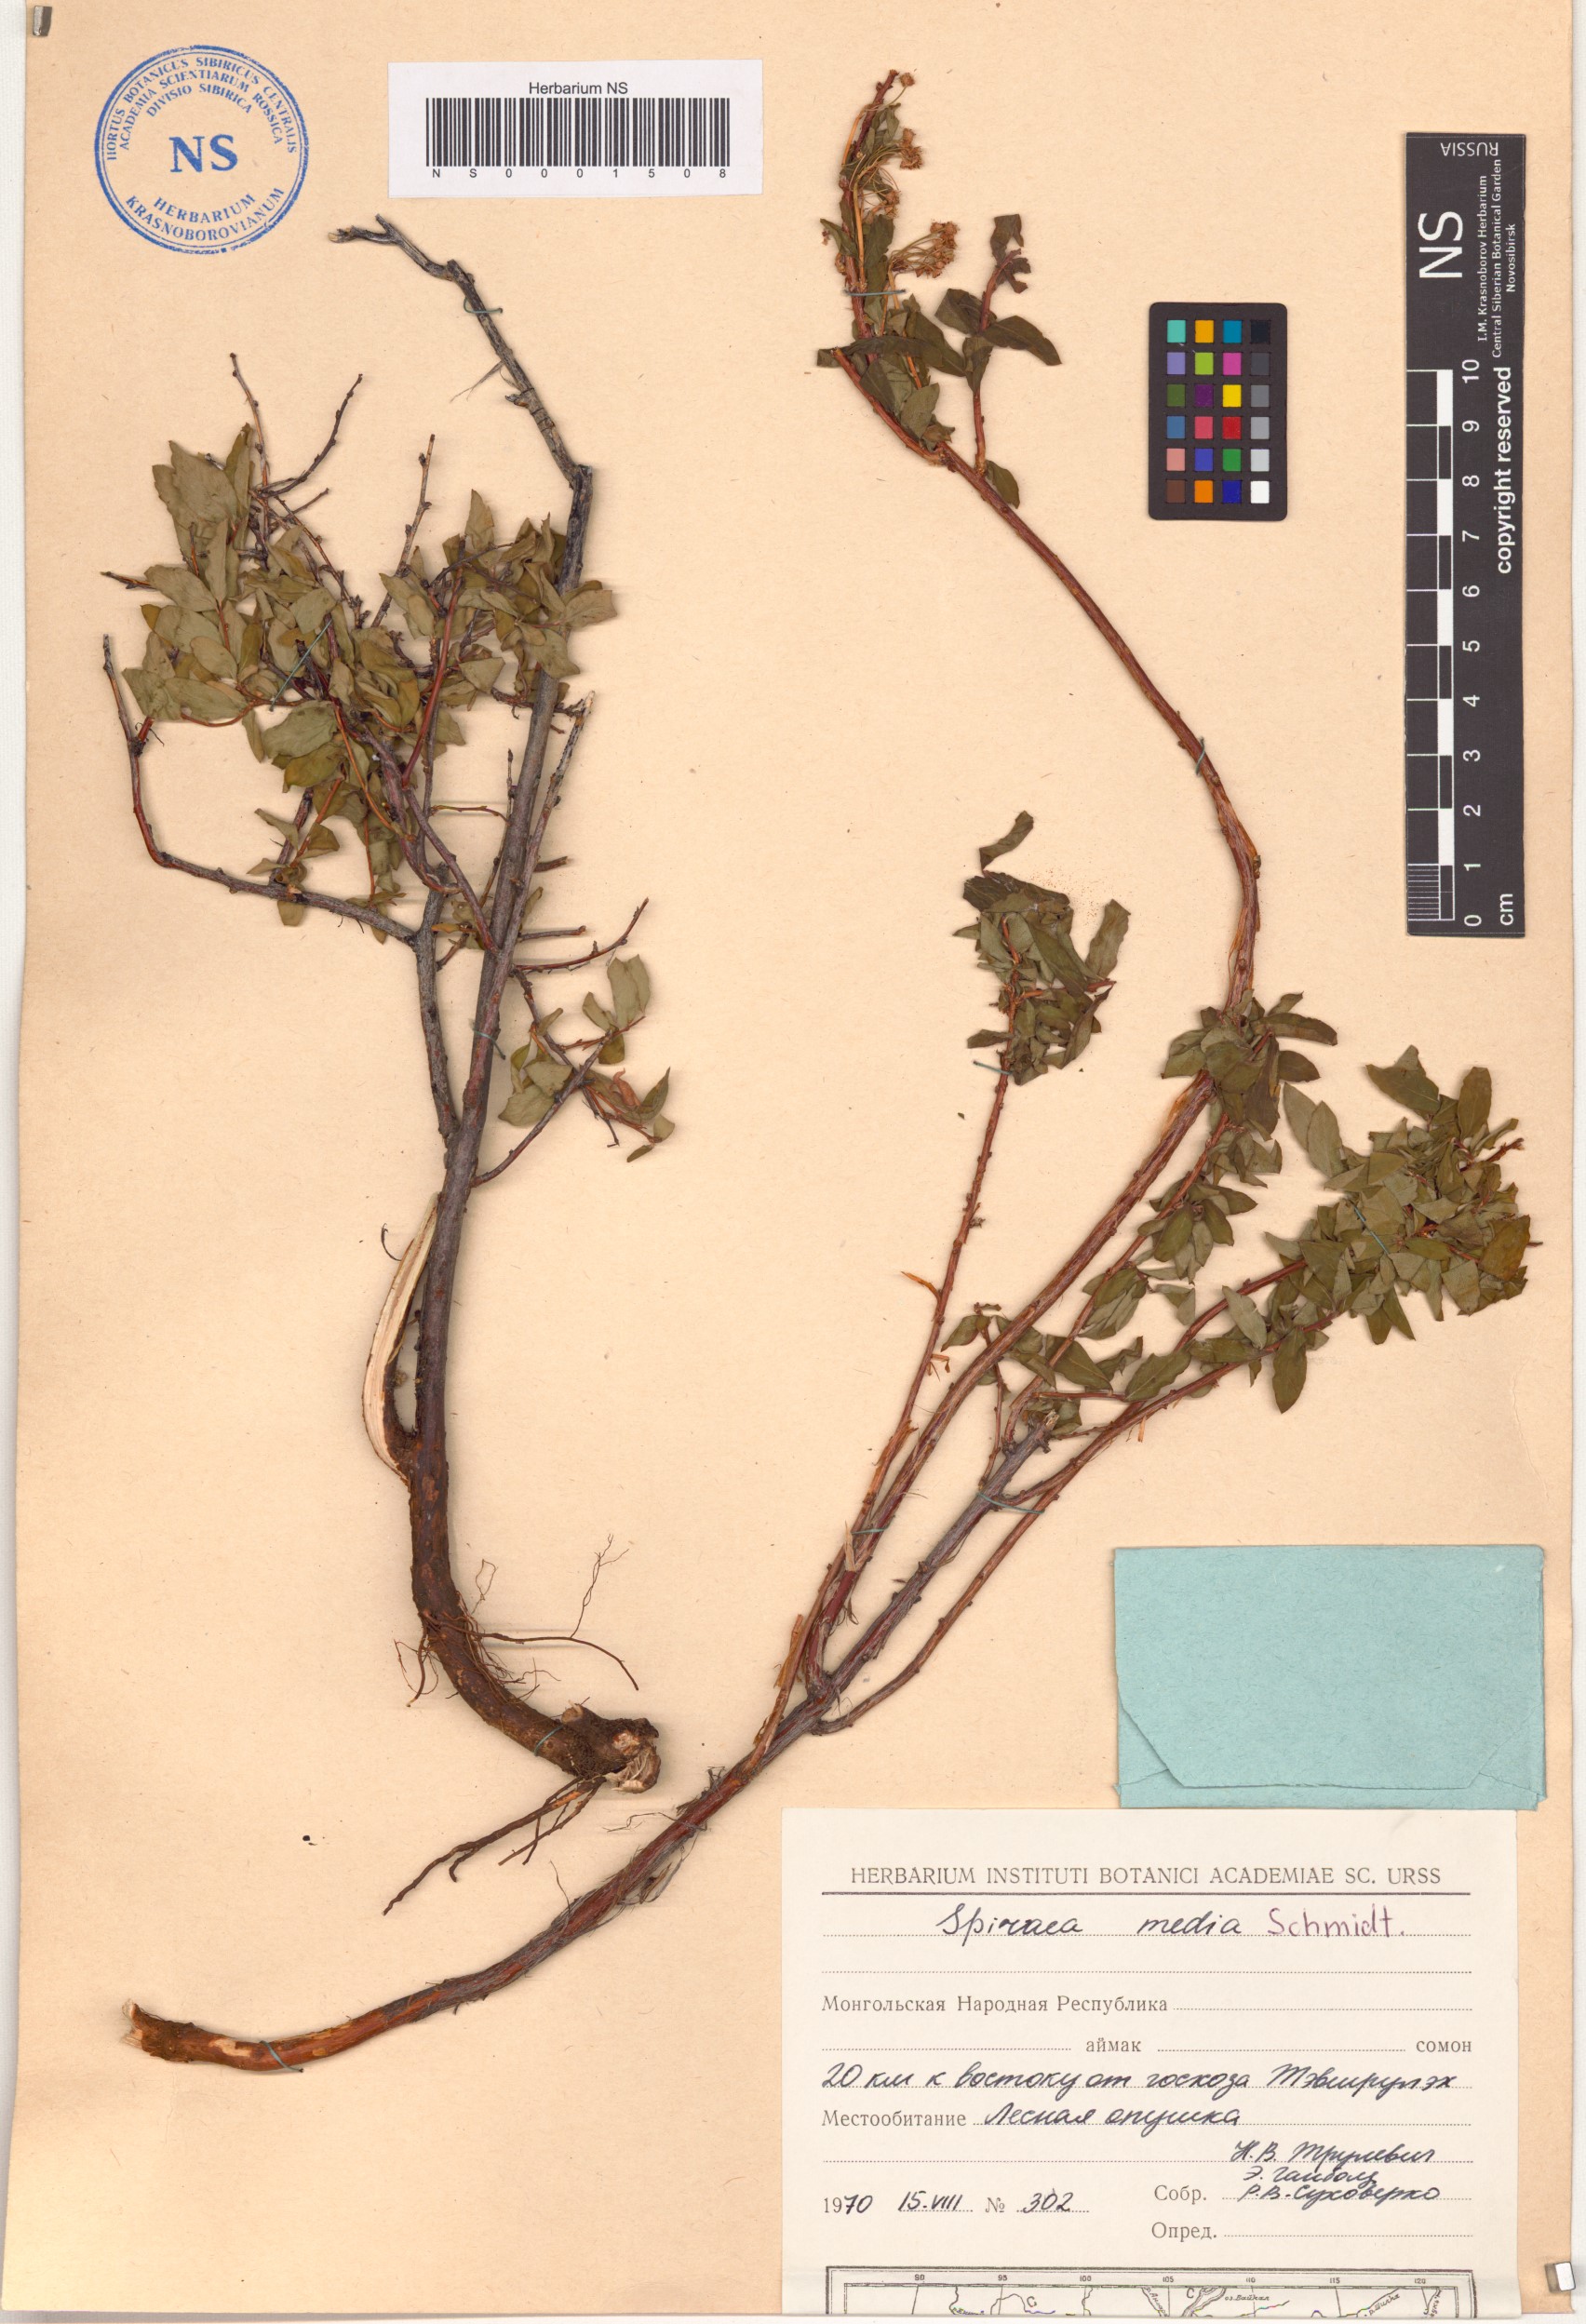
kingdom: Plantae
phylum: Tracheophyta
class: Magnoliopsida
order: Rosales
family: Rosaceae
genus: Spiraea
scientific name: Spiraea media
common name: Russian spiraea
